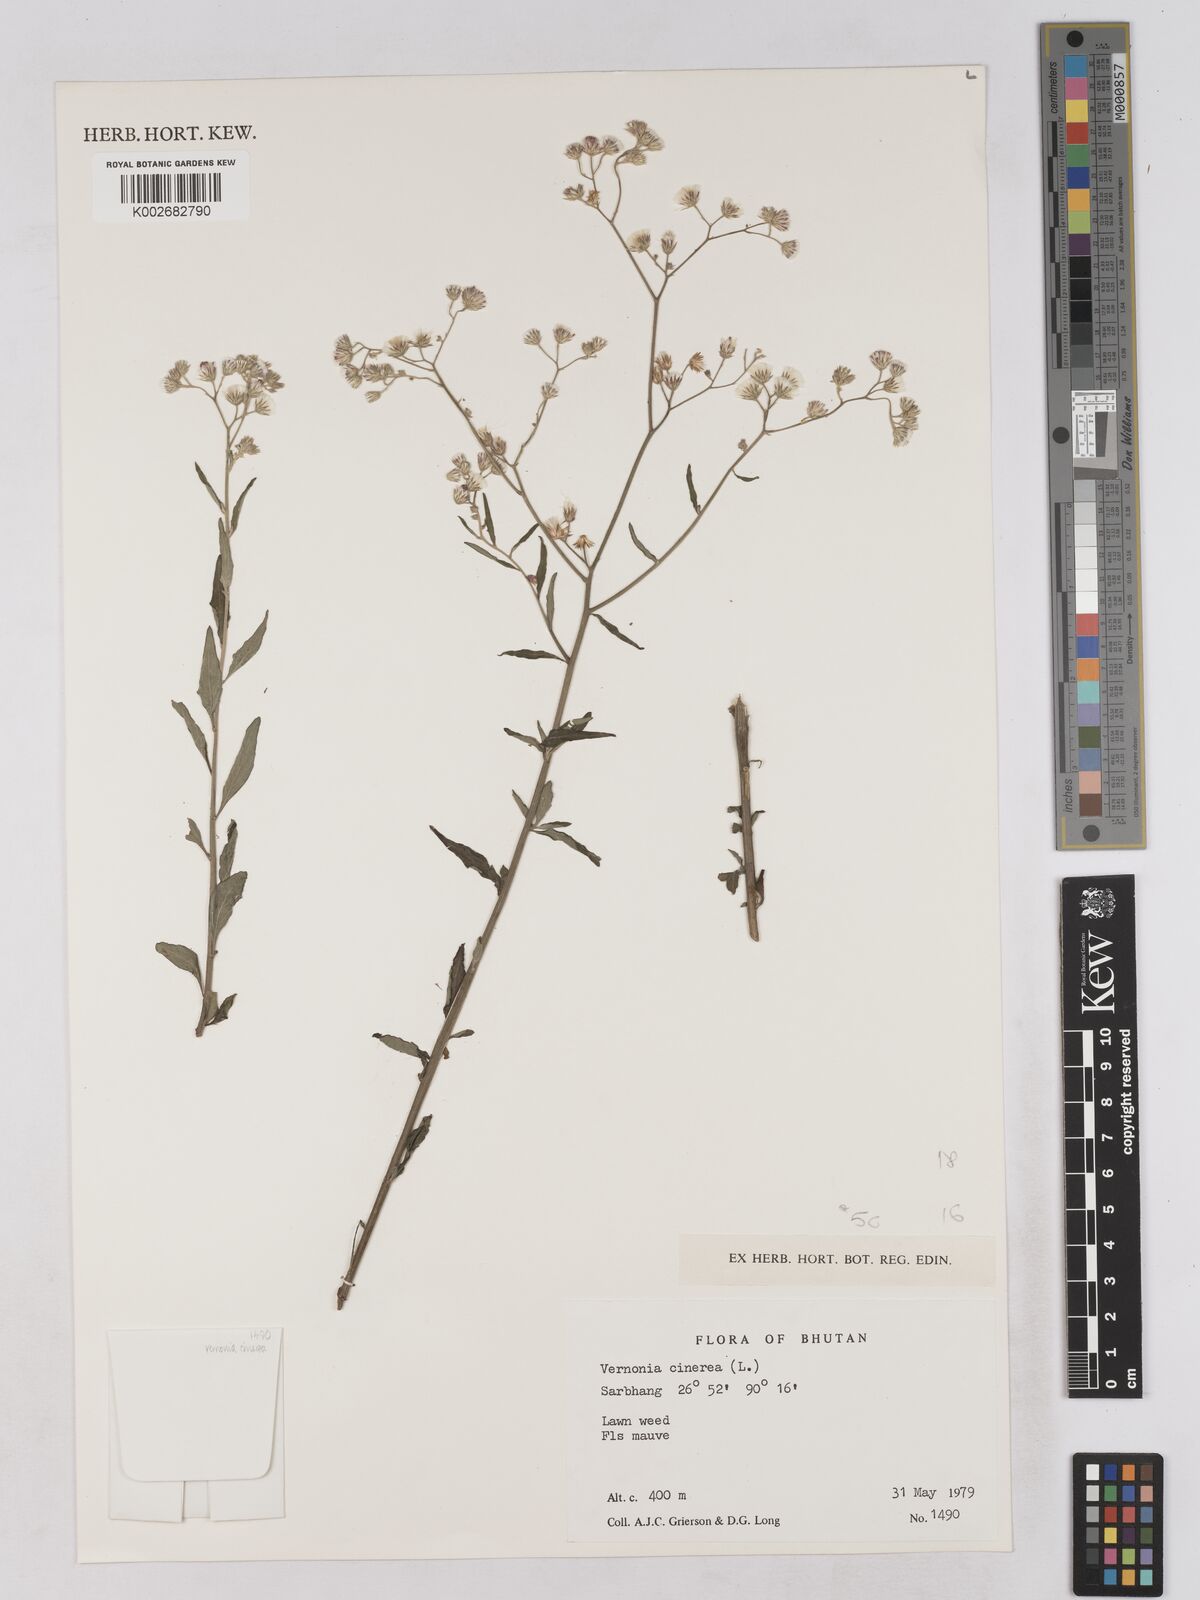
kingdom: Plantae
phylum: Tracheophyta
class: Magnoliopsida
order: Asterales
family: Asteraceae
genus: Vernonia
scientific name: Vernonia
